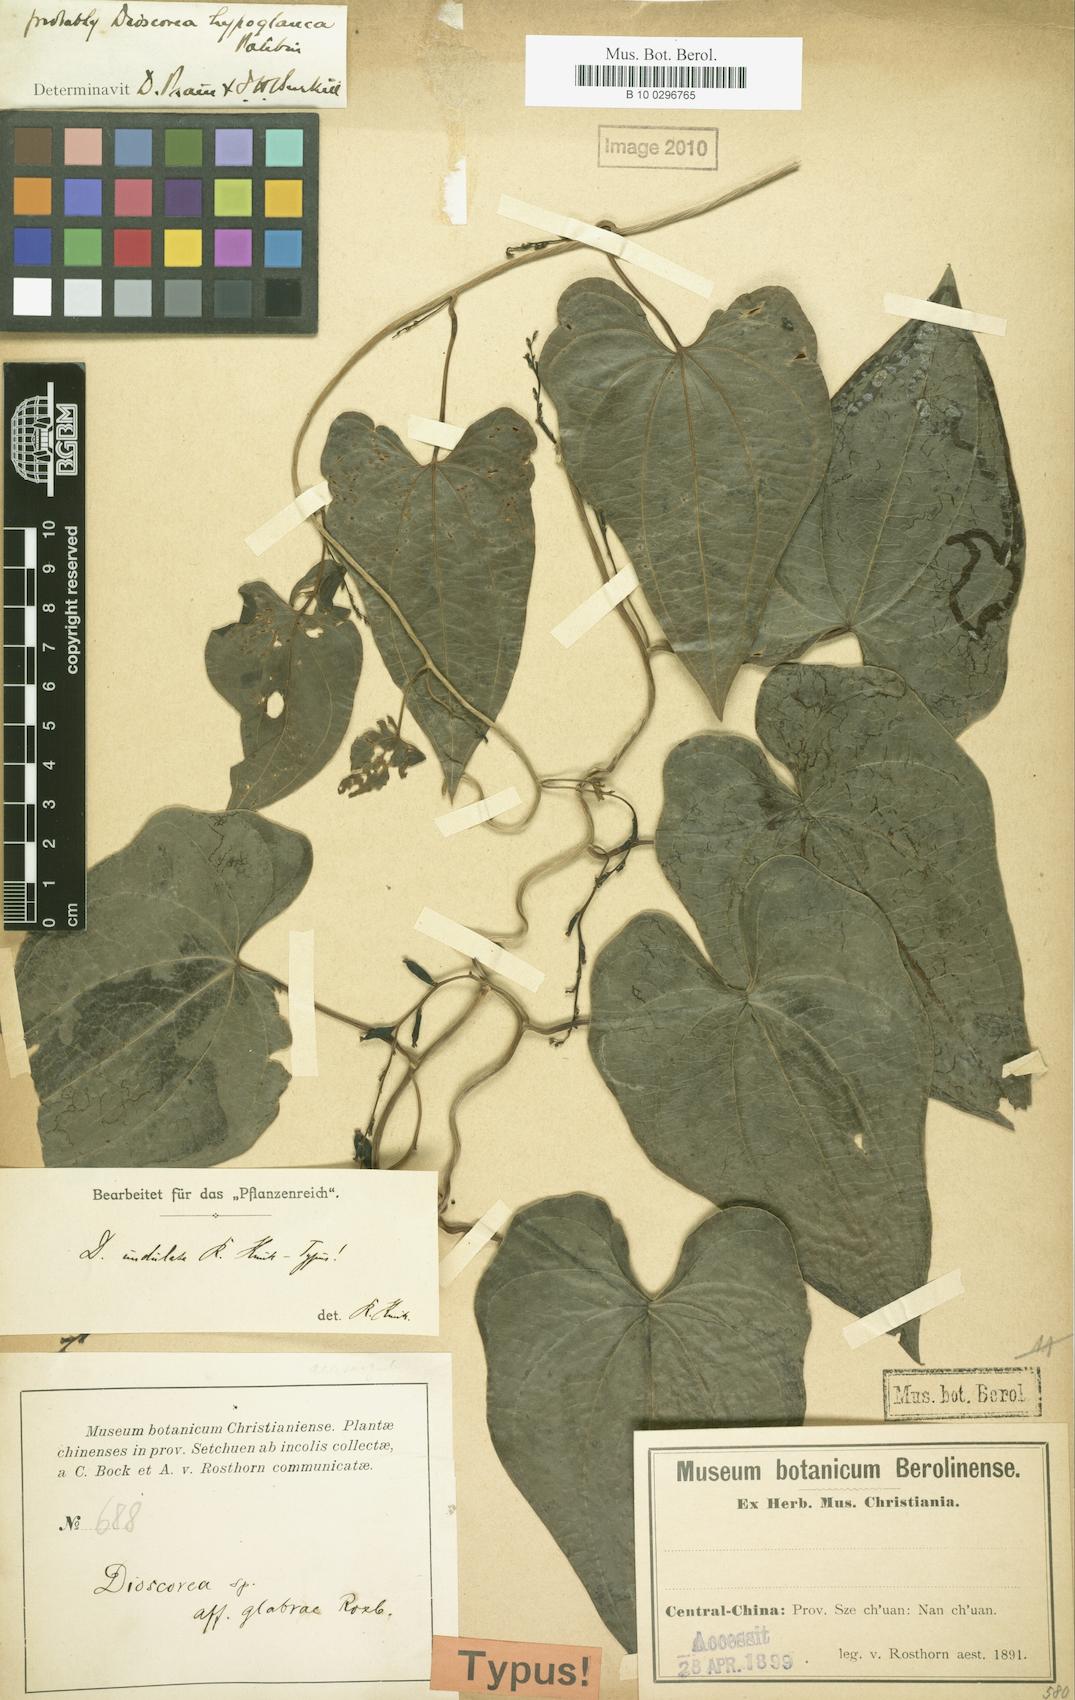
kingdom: Plantae
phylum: Tracheophyta
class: Liliopsida
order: Dioscoreales
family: Dioscoreaceae
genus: Dioscorea
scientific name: Dioscorea collettii
